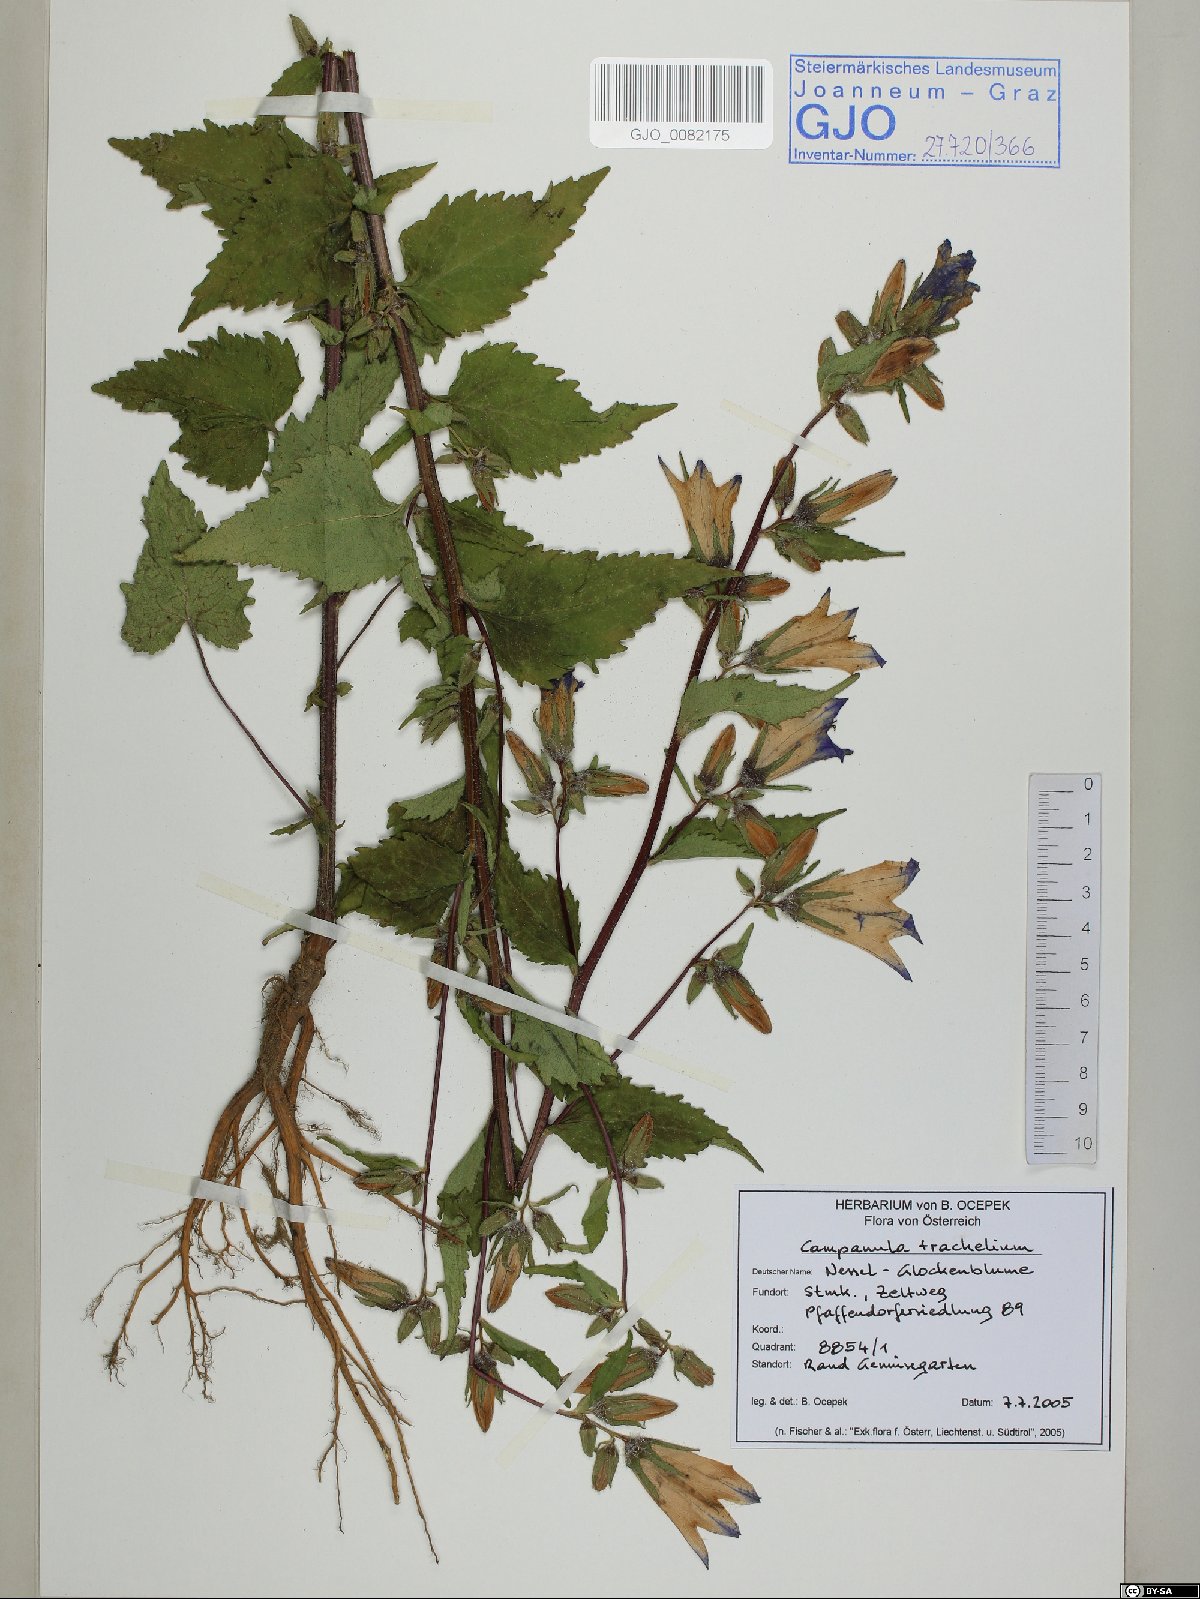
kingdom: Plantae
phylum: Tracheophyta
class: Magnoliopsida
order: Asterales
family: Campanulaceae
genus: Campanula
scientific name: Campanula trachelium
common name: Nettle-leaved bellflower
